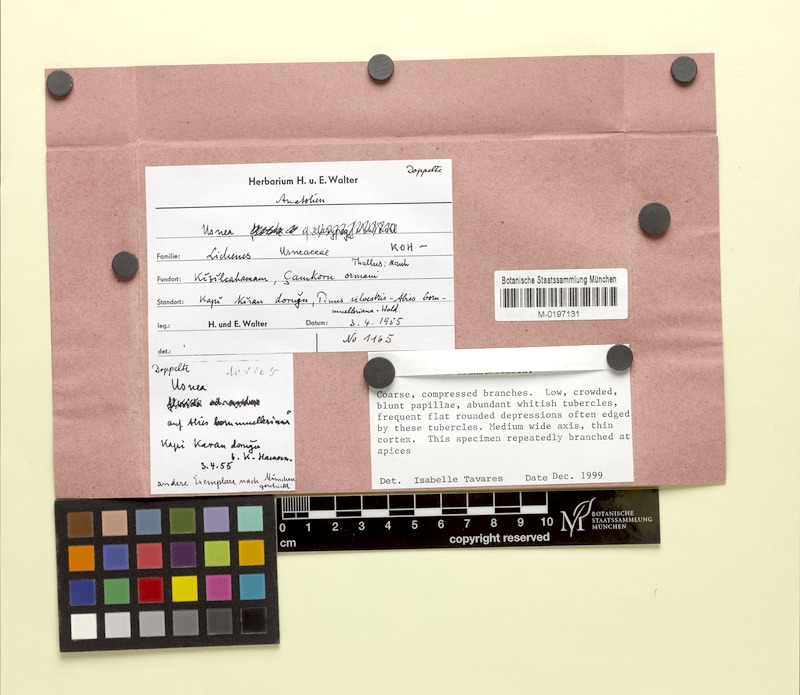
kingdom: Fungi
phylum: Ascomycota
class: Lecanoromycetes
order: Lecanorales
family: Parmeliaceae
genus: Usnea
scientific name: Usnea
